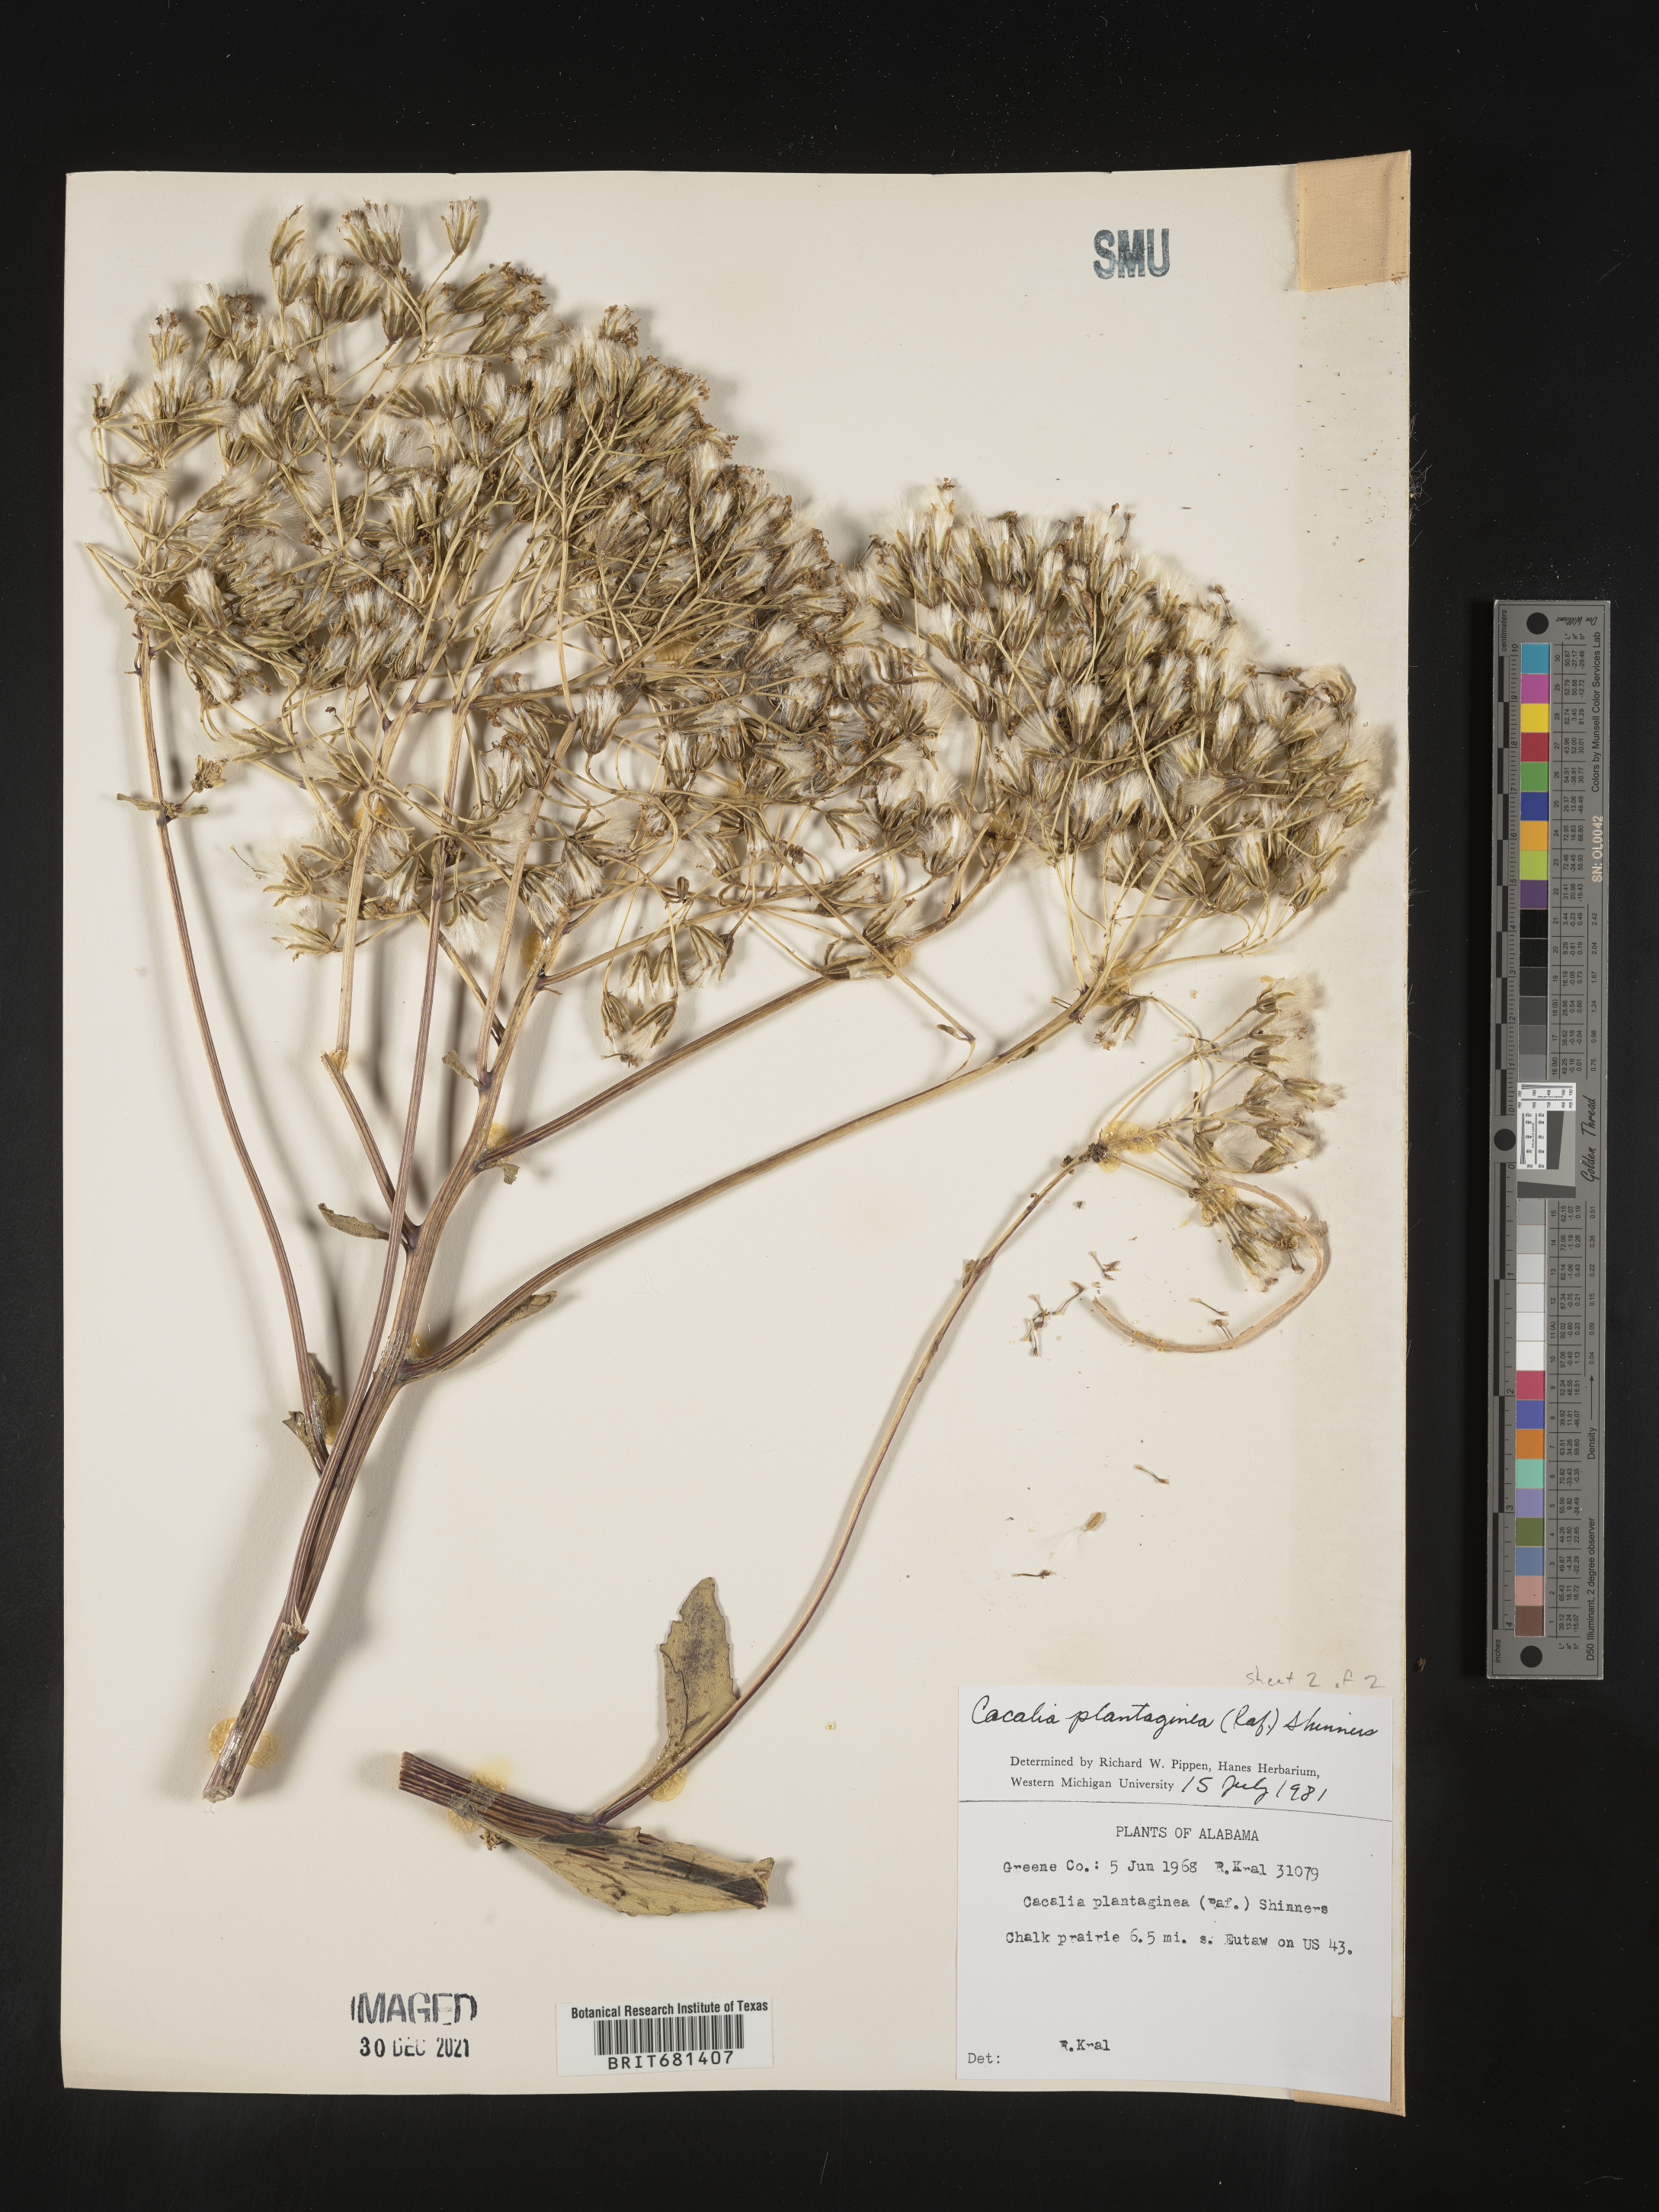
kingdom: Plantae
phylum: Tracheophyta
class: Magnoliopsida
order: Asterales
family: Asteraceae
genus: Arnoglossum
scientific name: Arnoglossum plantagineum
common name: Groove-stemmed indian-plantain
